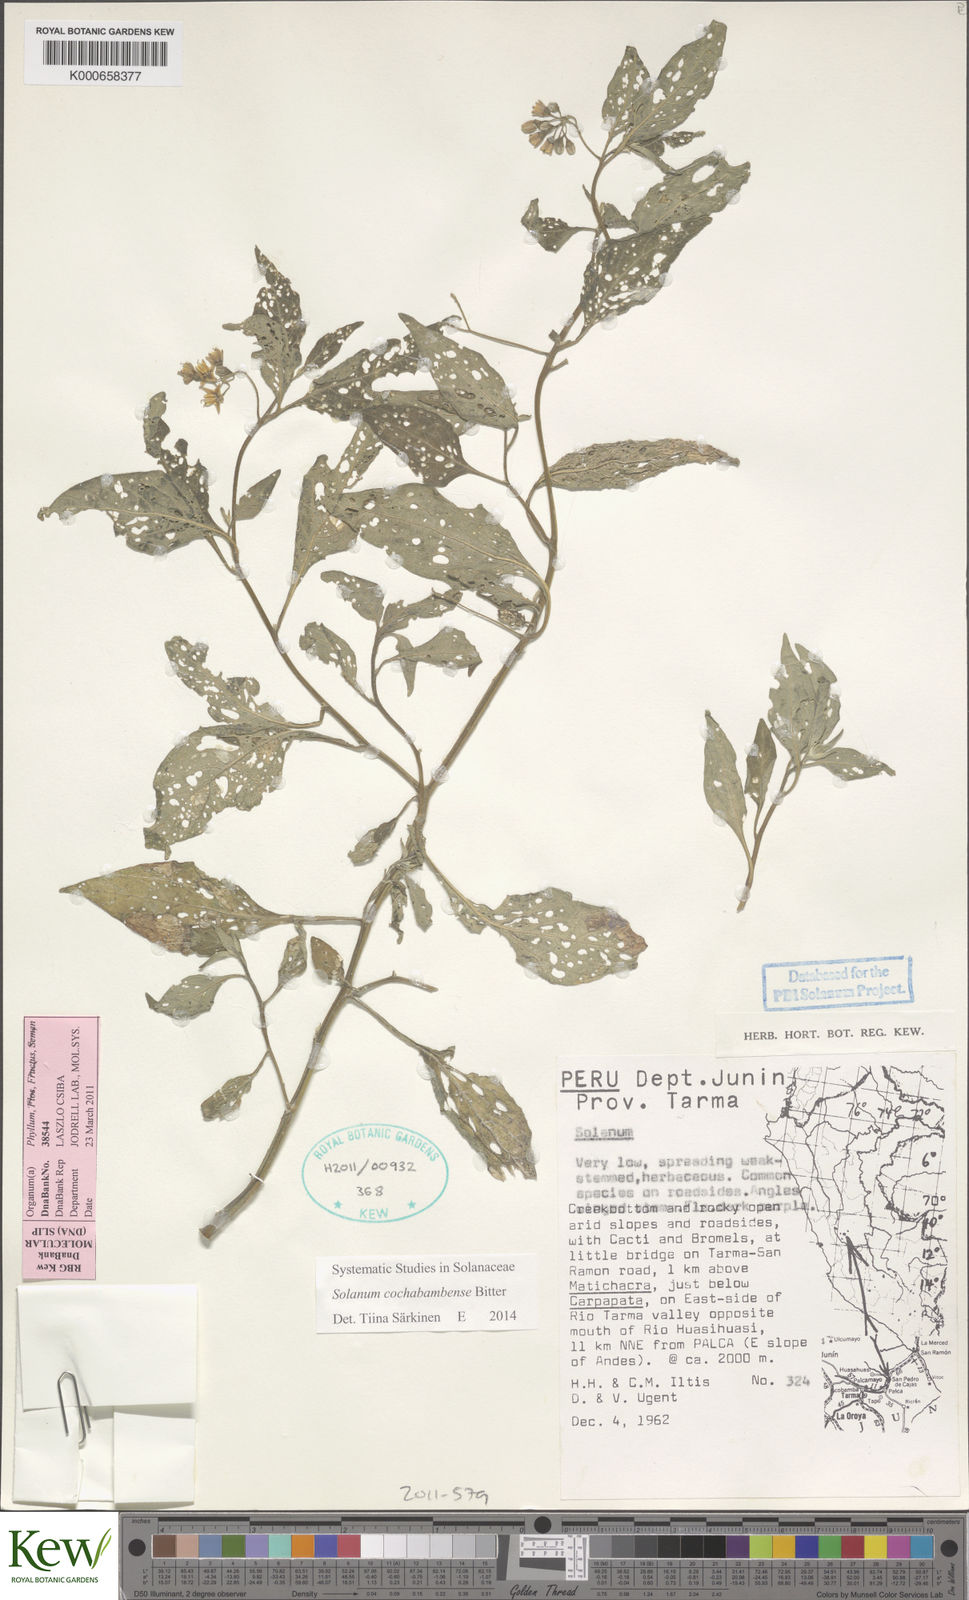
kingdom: Plantae
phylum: Tracheophyta
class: Magnoliopsida
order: Solanales
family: Solanaceae
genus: Solanum
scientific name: Solanum probolospermum
